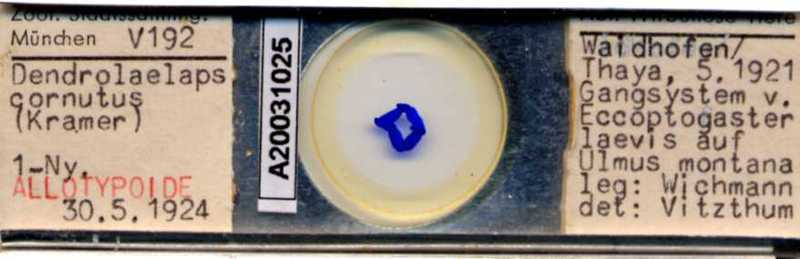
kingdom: Animalia
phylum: Arthropoda
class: Arachnida
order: Mesostigmata
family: Digamasellidae
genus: Dendrolaelaps
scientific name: Dendrolaelaps
